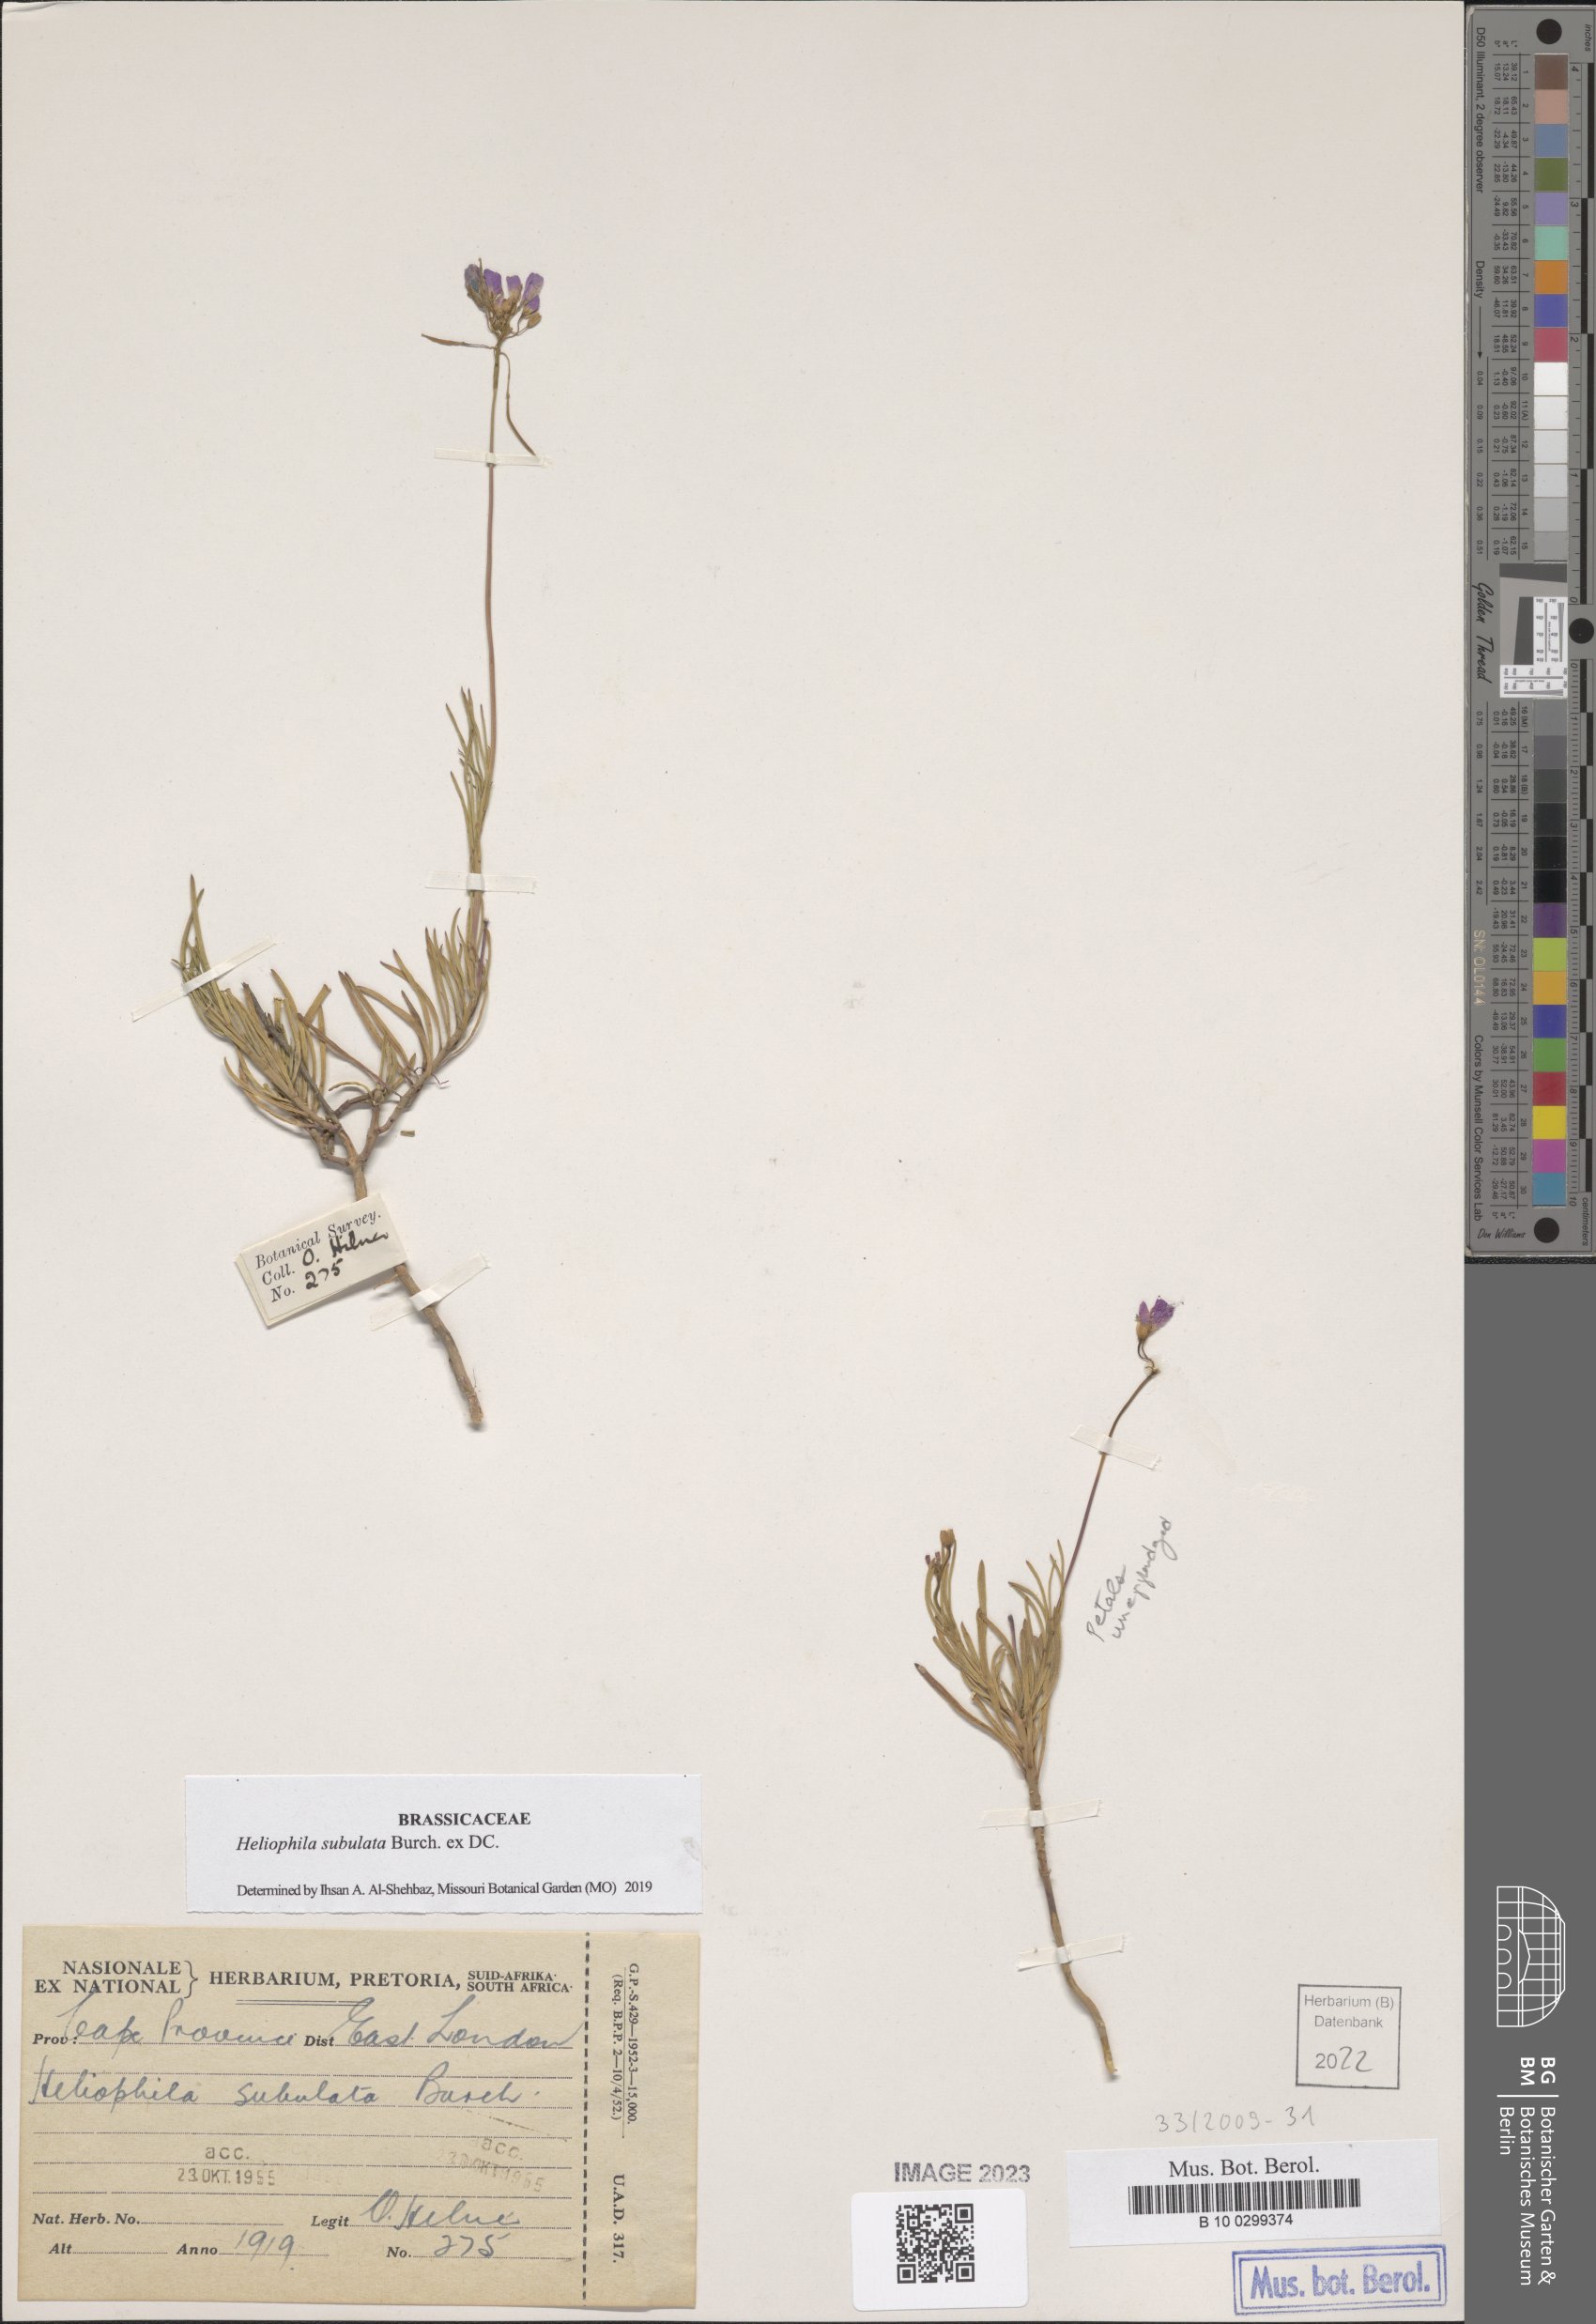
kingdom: Plantae
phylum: Tracheophyta
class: Magnoliopsida
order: Brassicales
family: Brassicaceae
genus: Heliophila
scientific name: Heliophila subulata
